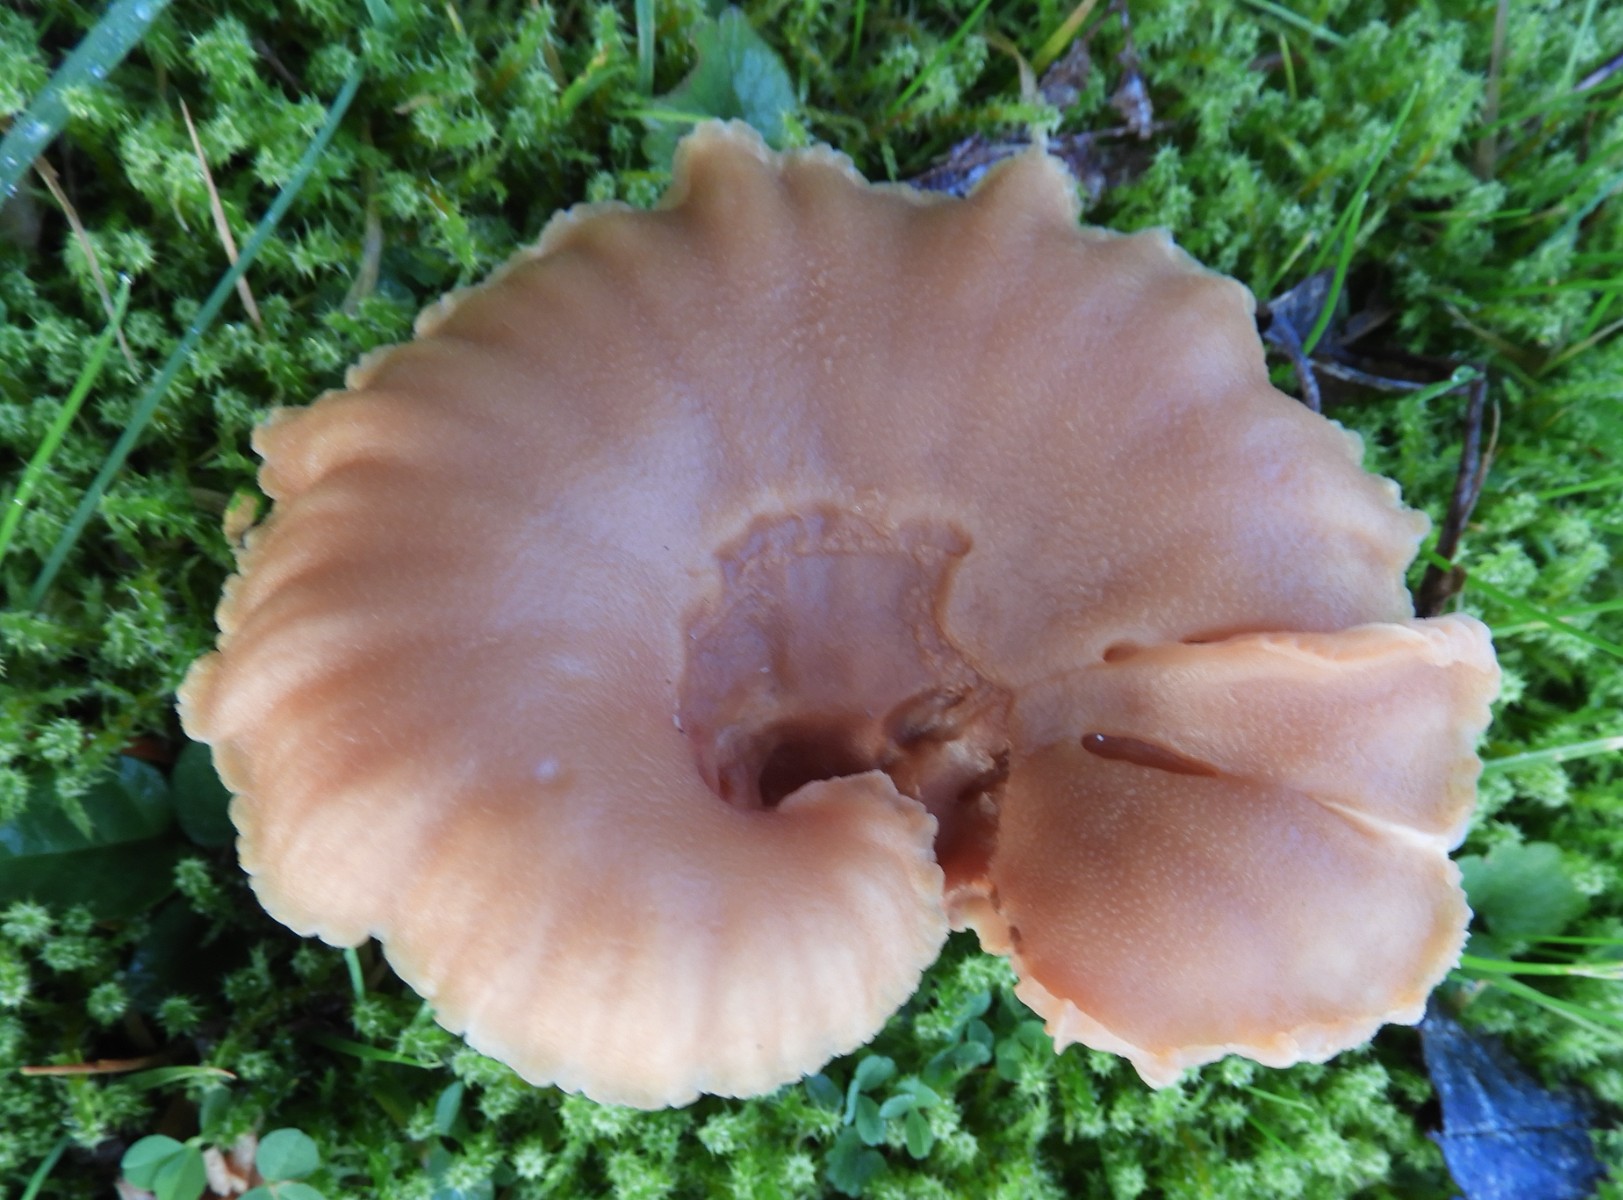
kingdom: Fungi
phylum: Basidiomycota
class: Agaricomycetes
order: Agaricales
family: Hydnangiaceae
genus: Laccaria
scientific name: Laccaria proxima
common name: stor ametysthat
